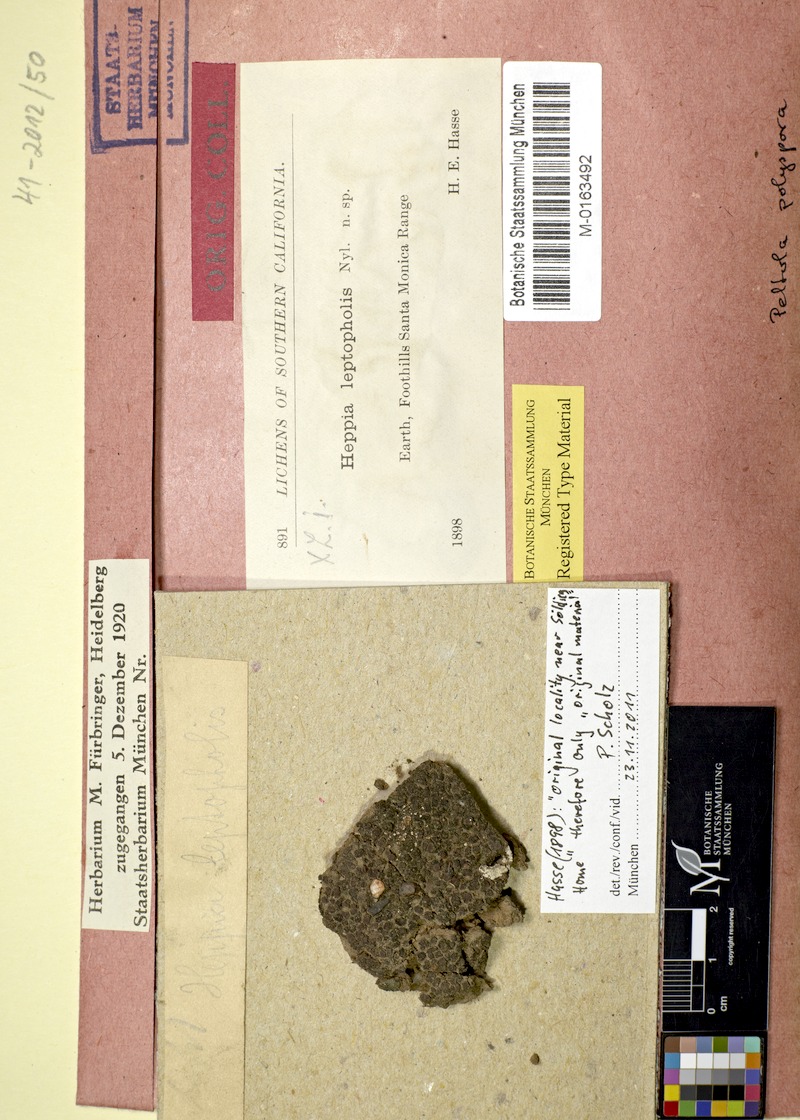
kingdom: Fungi
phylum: Ascomycota
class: Lichinomycetes
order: Lichinales
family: Peltulaceae
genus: Peltula
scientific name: Peltula patellata
